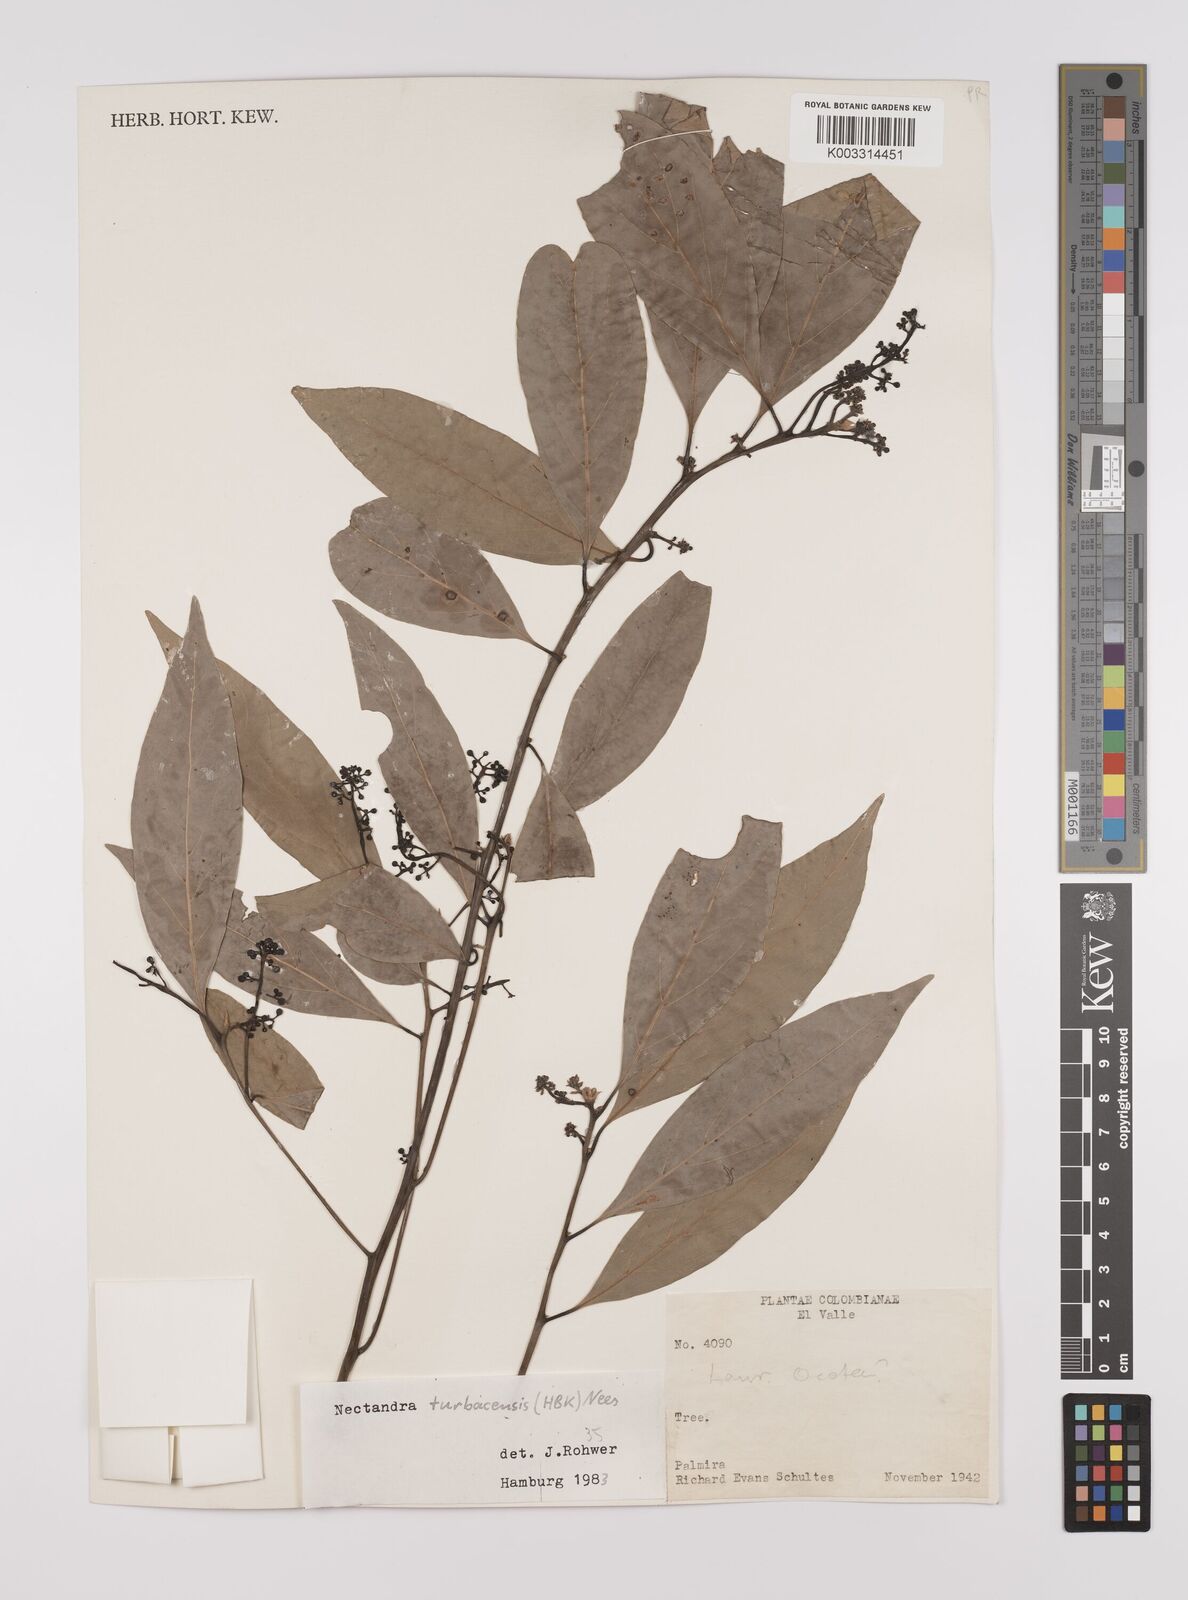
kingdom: Plantae
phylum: Tracheophyta
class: Magnoliopsida
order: Laurales
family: Lauraceae
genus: Nectandra
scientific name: Nectandra turbacensis
